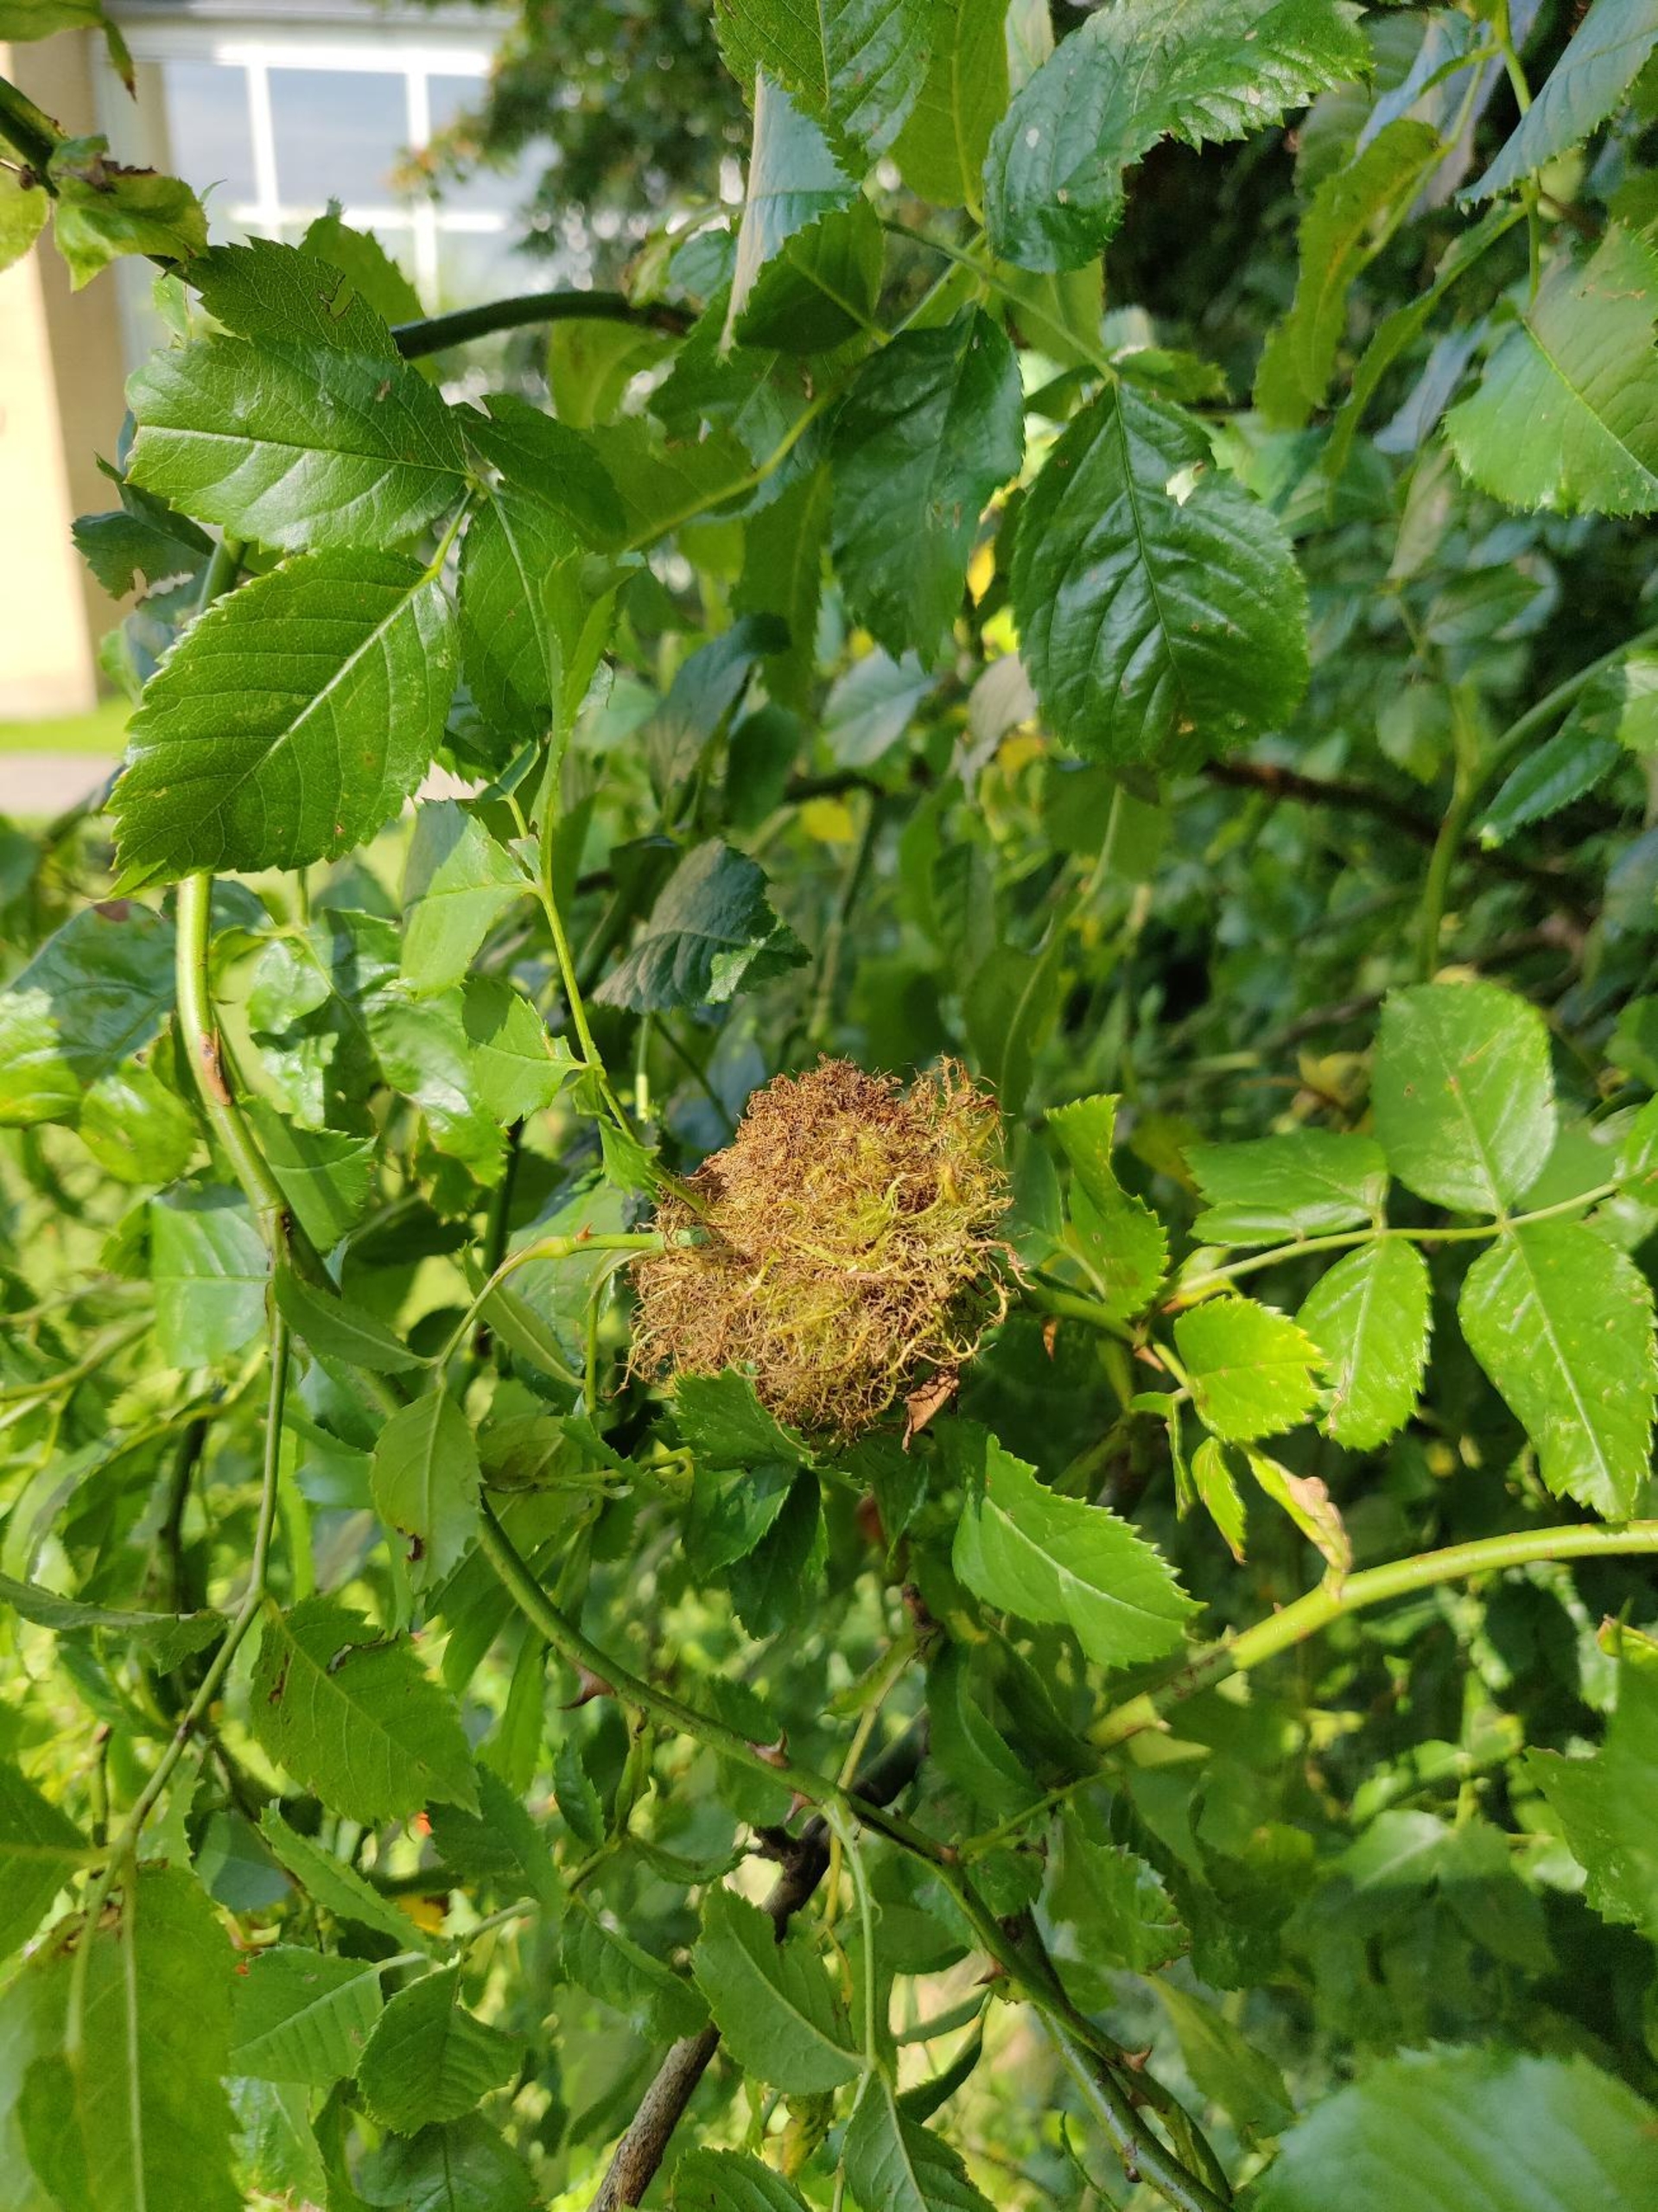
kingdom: Animalia
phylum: Arthropoda
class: Insecta
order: Hymenoptera
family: Cynipidae
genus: Diplolepis
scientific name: Diplolepis rosae
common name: Bedeguargalhveps
